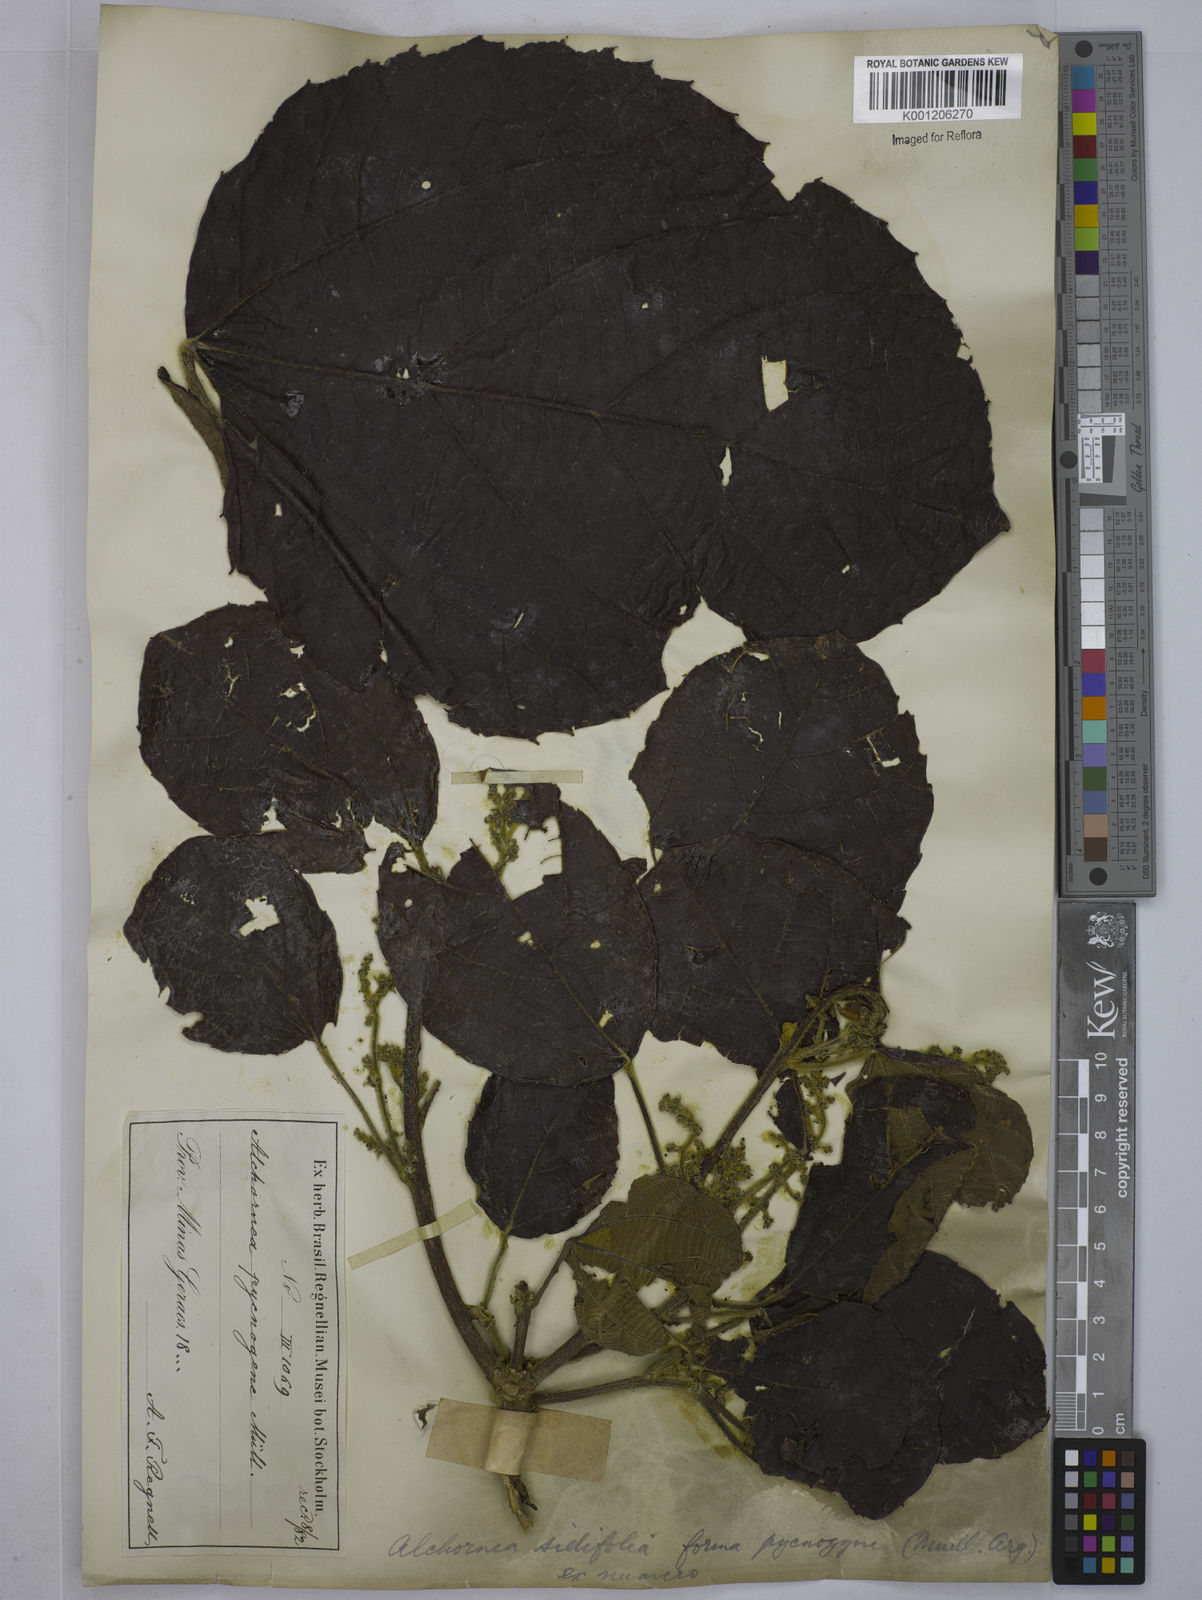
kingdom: Plantae
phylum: Tracheophyta
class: Magnoliopsida
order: Malpighiales
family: Euphorbiaceae
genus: Alchornea
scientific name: Alchornea
